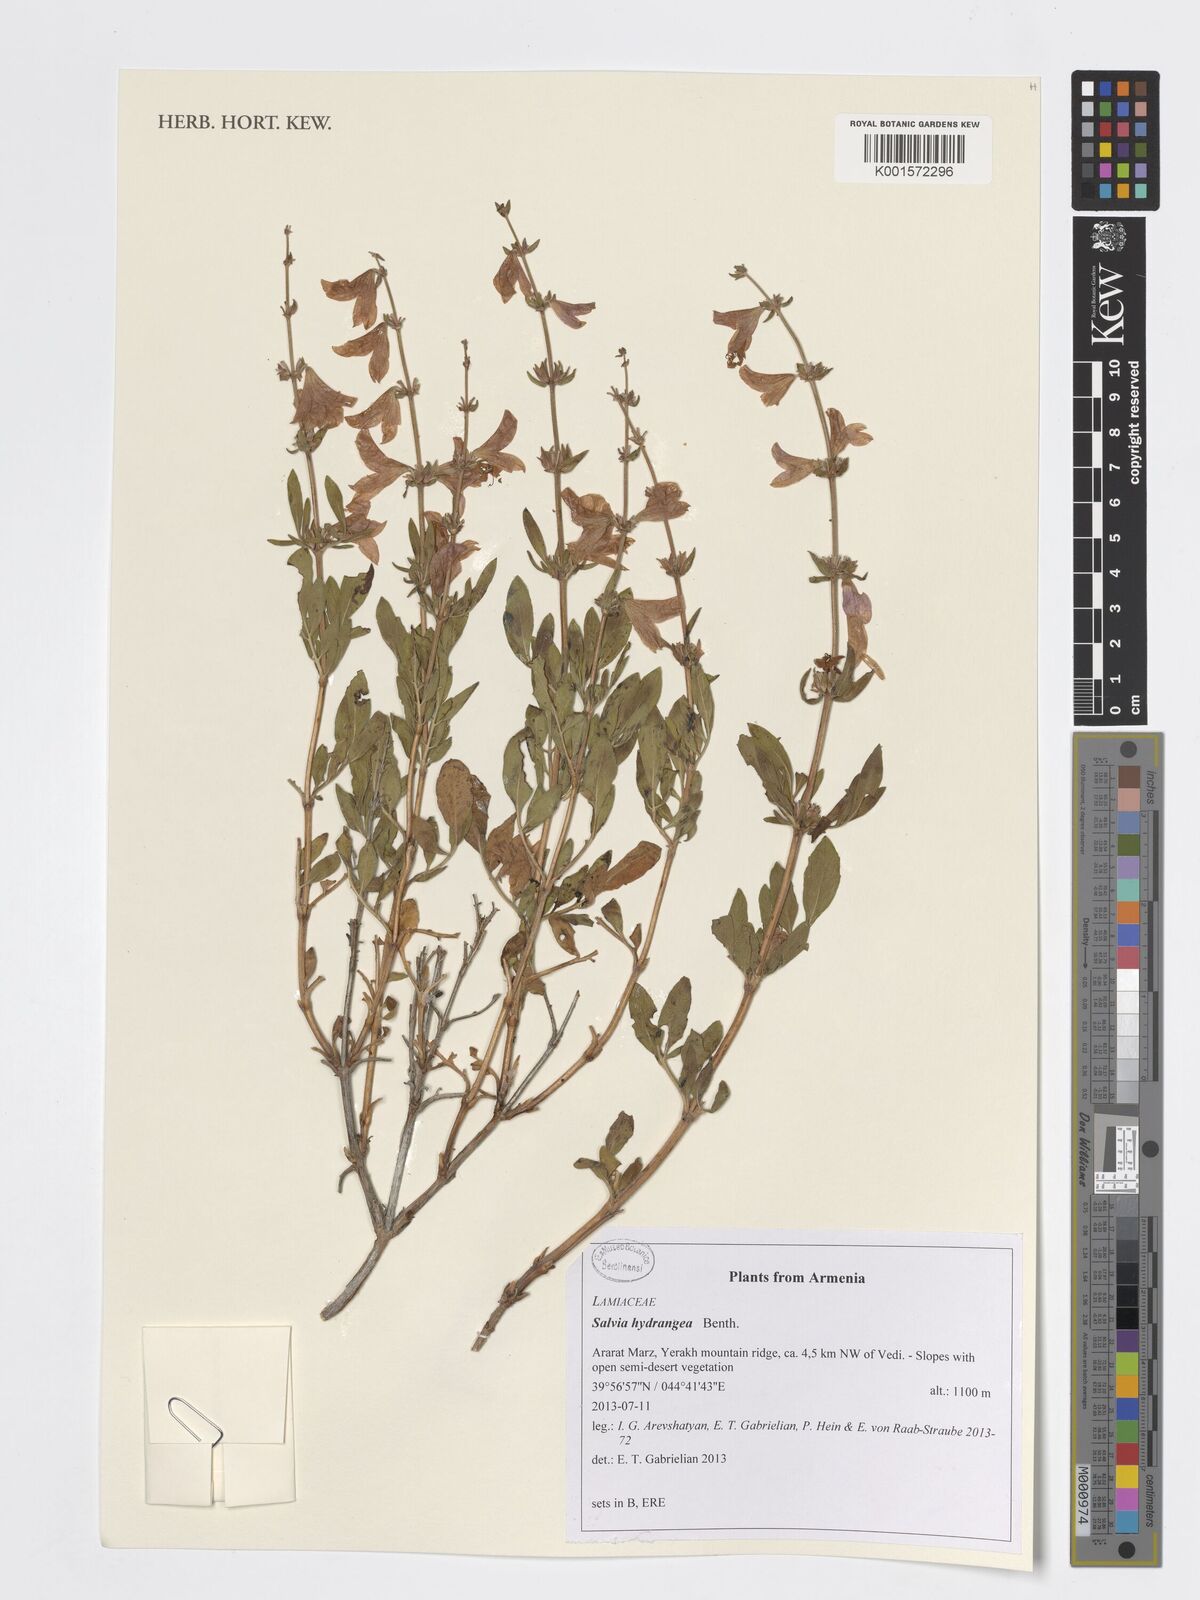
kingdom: Plantae
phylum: Tracheophyta
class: Magnoliopsida
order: Lamiales
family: Lamiaceae
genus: Salvia
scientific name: Salvia hydrangea
